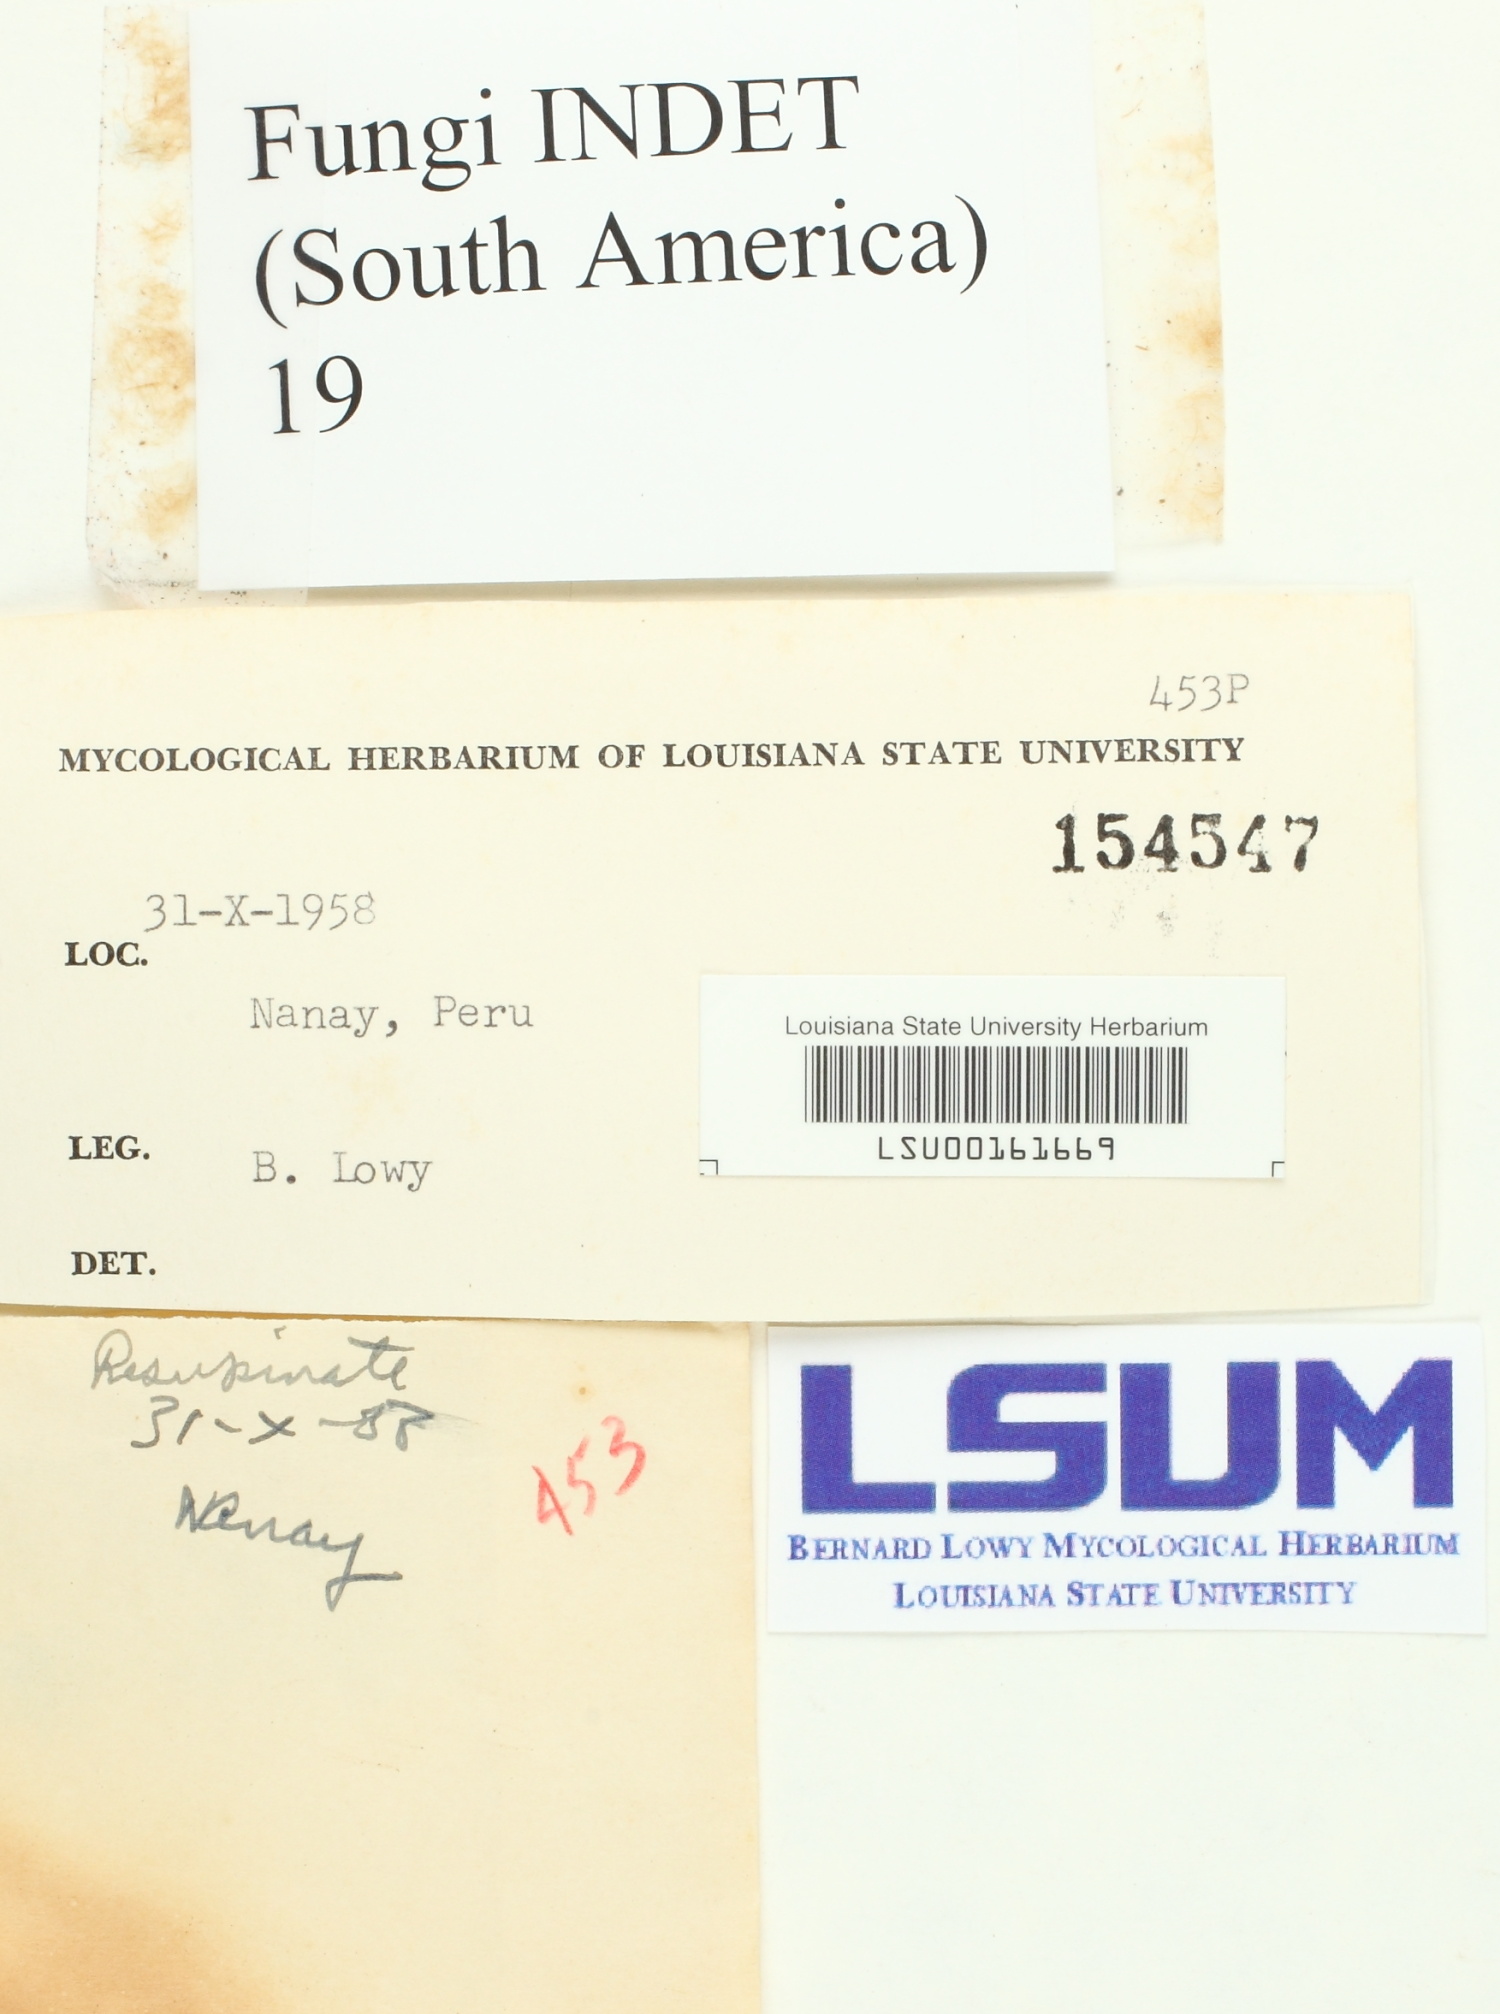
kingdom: Fungi
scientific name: Fungi
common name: Fungi
